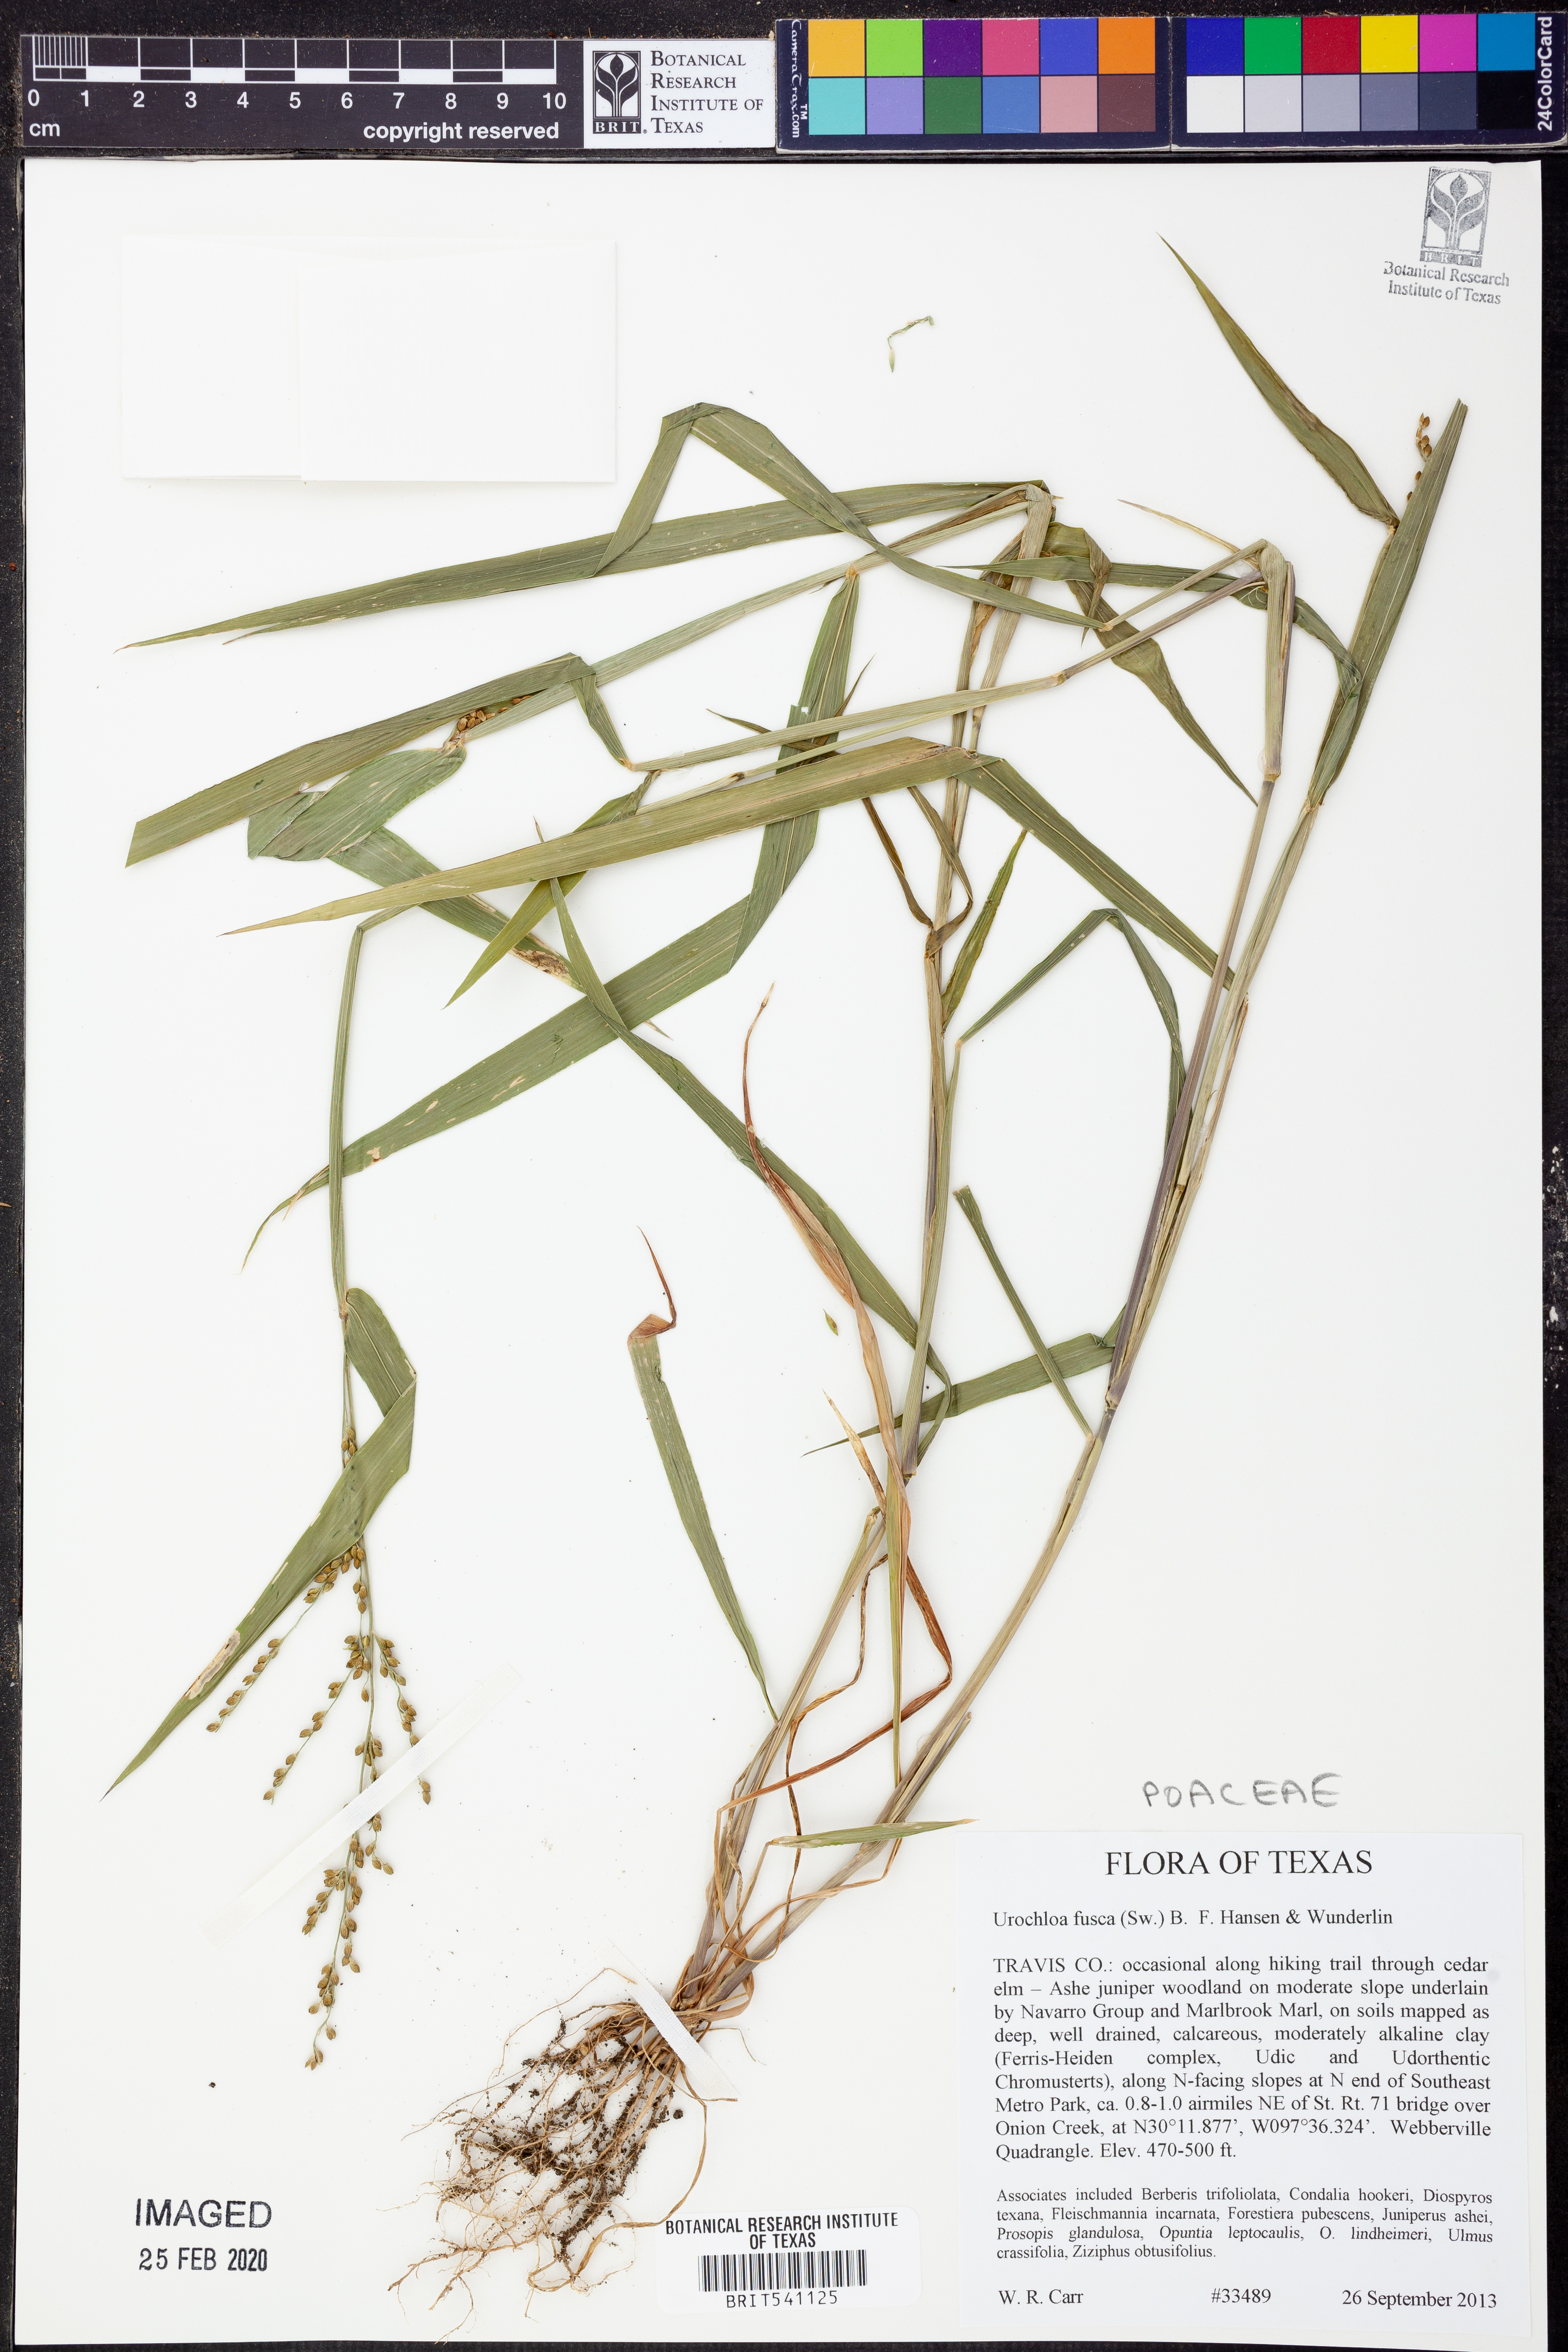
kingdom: Plantae
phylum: Tracheophyta
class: Liliopsida
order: Poales
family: Poaceae
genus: Urochloa
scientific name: Urochloa fusca
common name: Browntop signal grass
